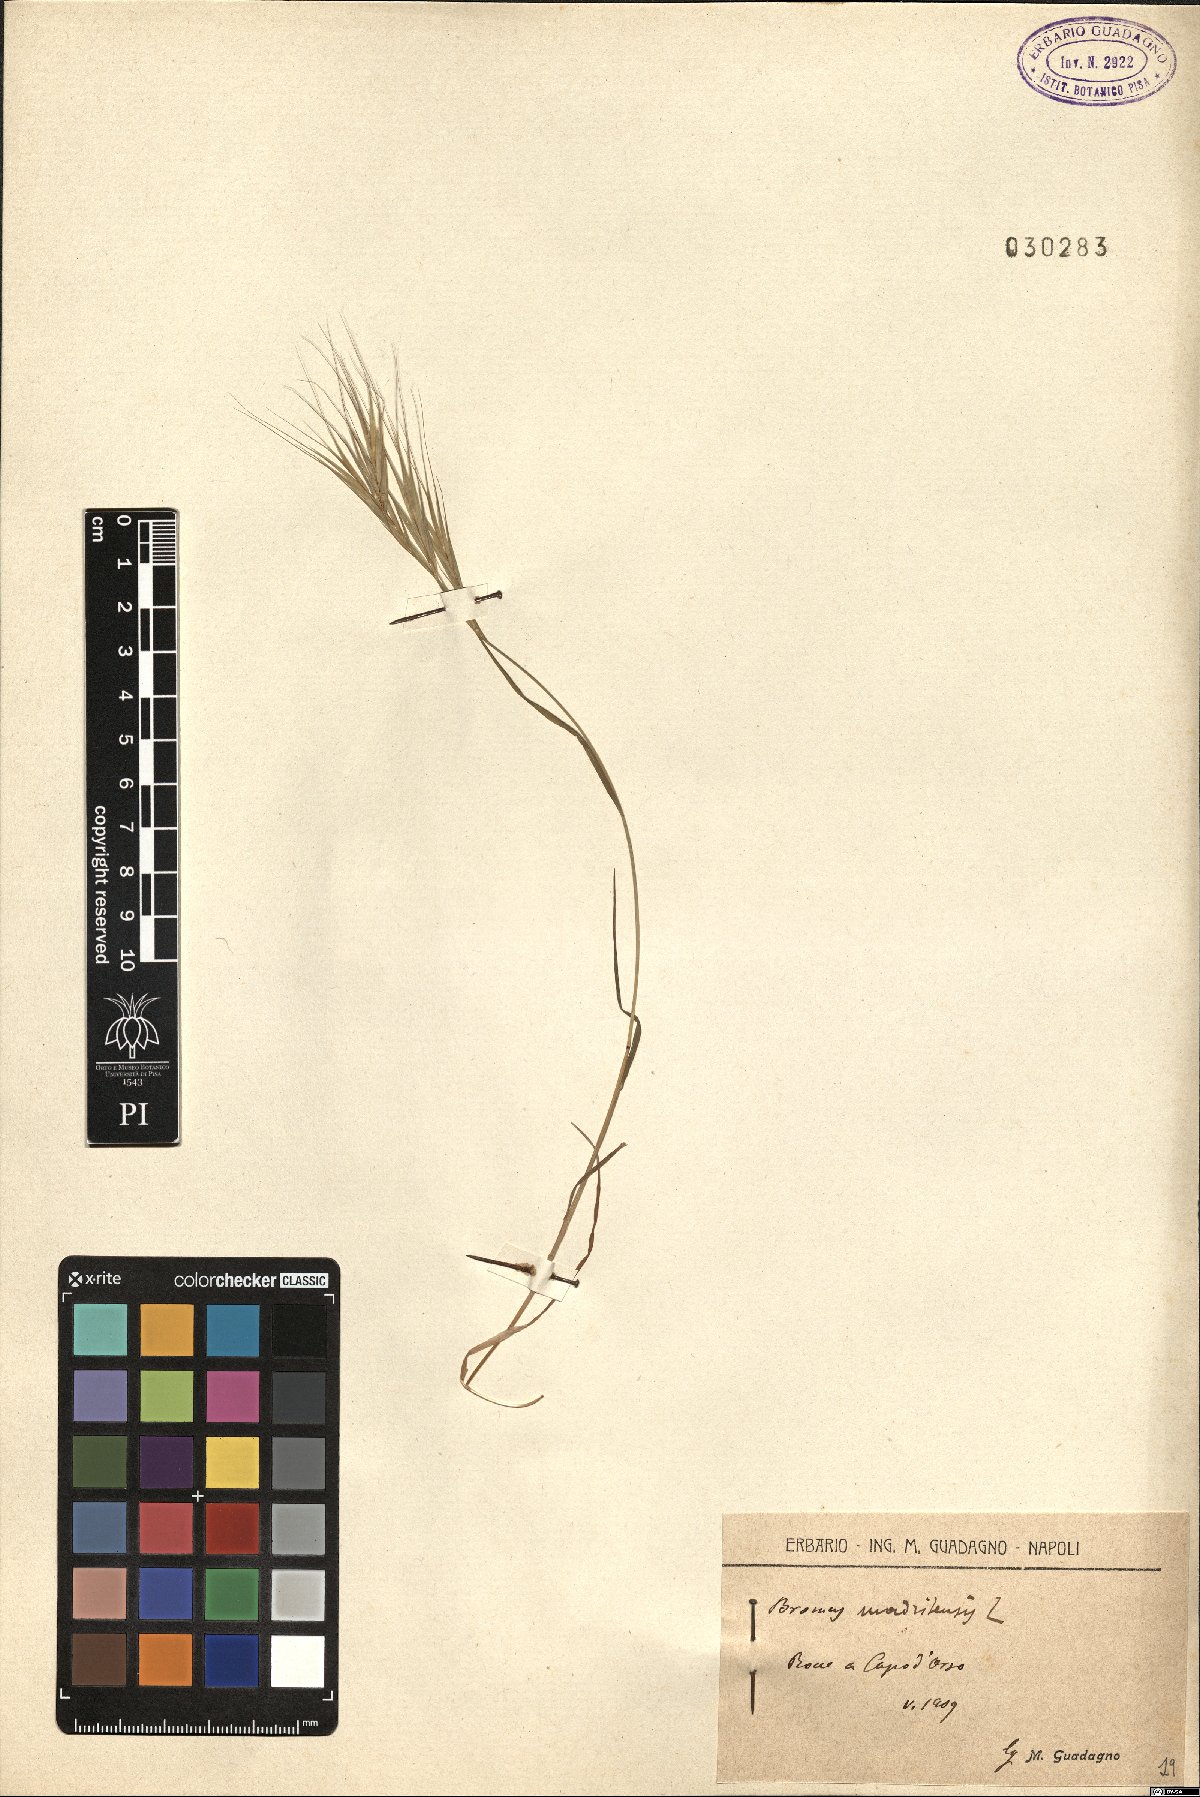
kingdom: Plantae
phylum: Tracheophyta
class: Liliopsida
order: Poales
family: Poaceae
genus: Bromus
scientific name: Bromus madritensis
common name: Compact brome
